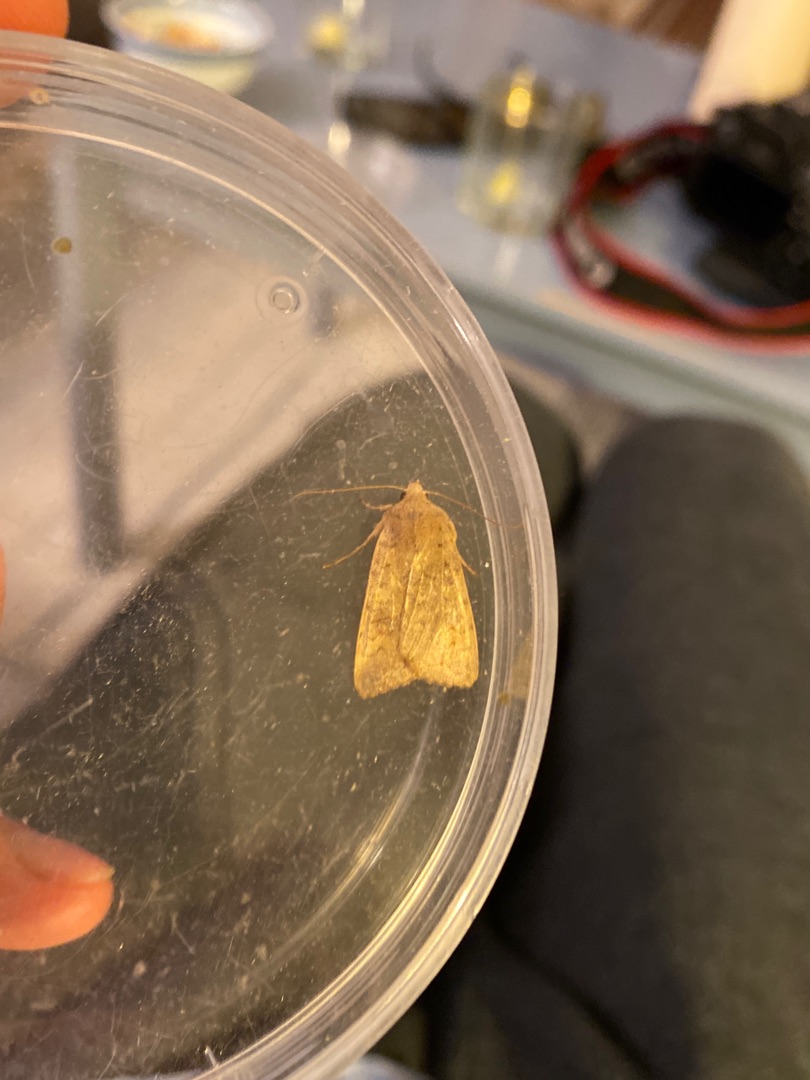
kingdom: Animalia
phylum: Arthropoda
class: Insecta
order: Lepidoptera
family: Noctuidae
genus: Sunira
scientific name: Sunira circellaris
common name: Cirkel-jordfarveugle
